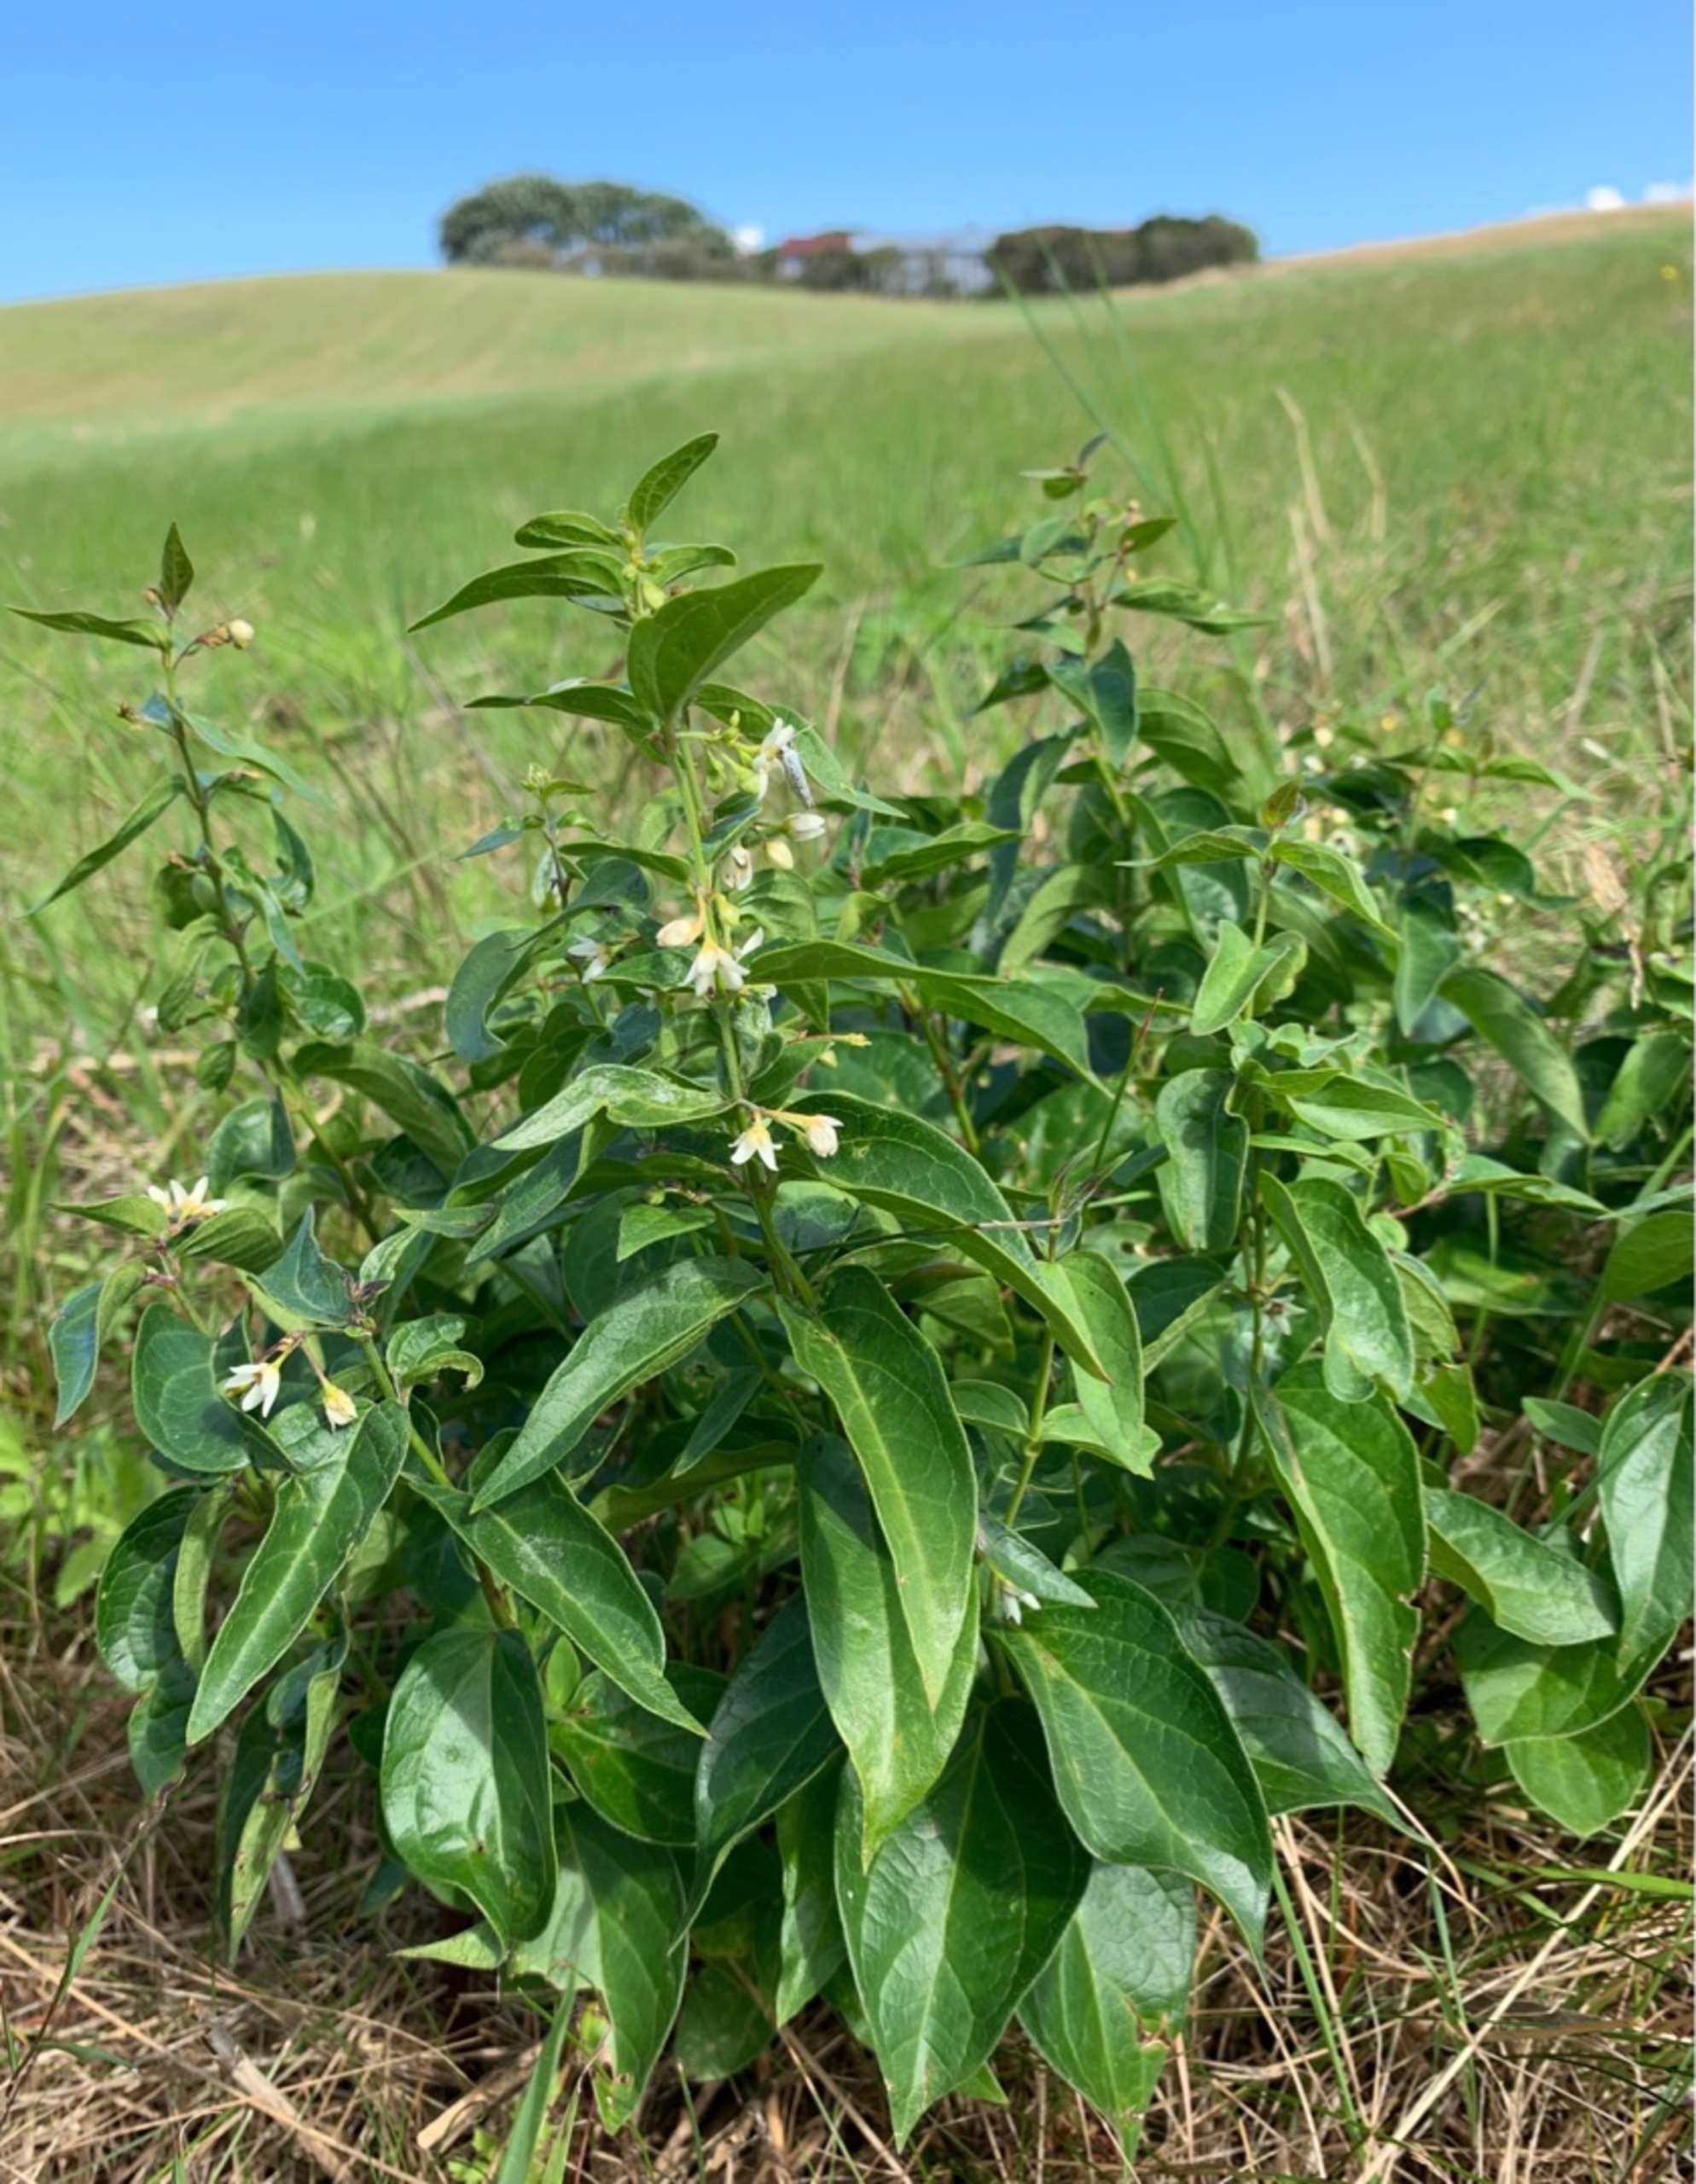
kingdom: Plantae
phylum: Tracheophyta
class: Magnoliopsida
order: Gentianales
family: Apocynaceae
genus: Vincetoxicum
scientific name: Vincetoxicum hirundinaria
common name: Svalerod
